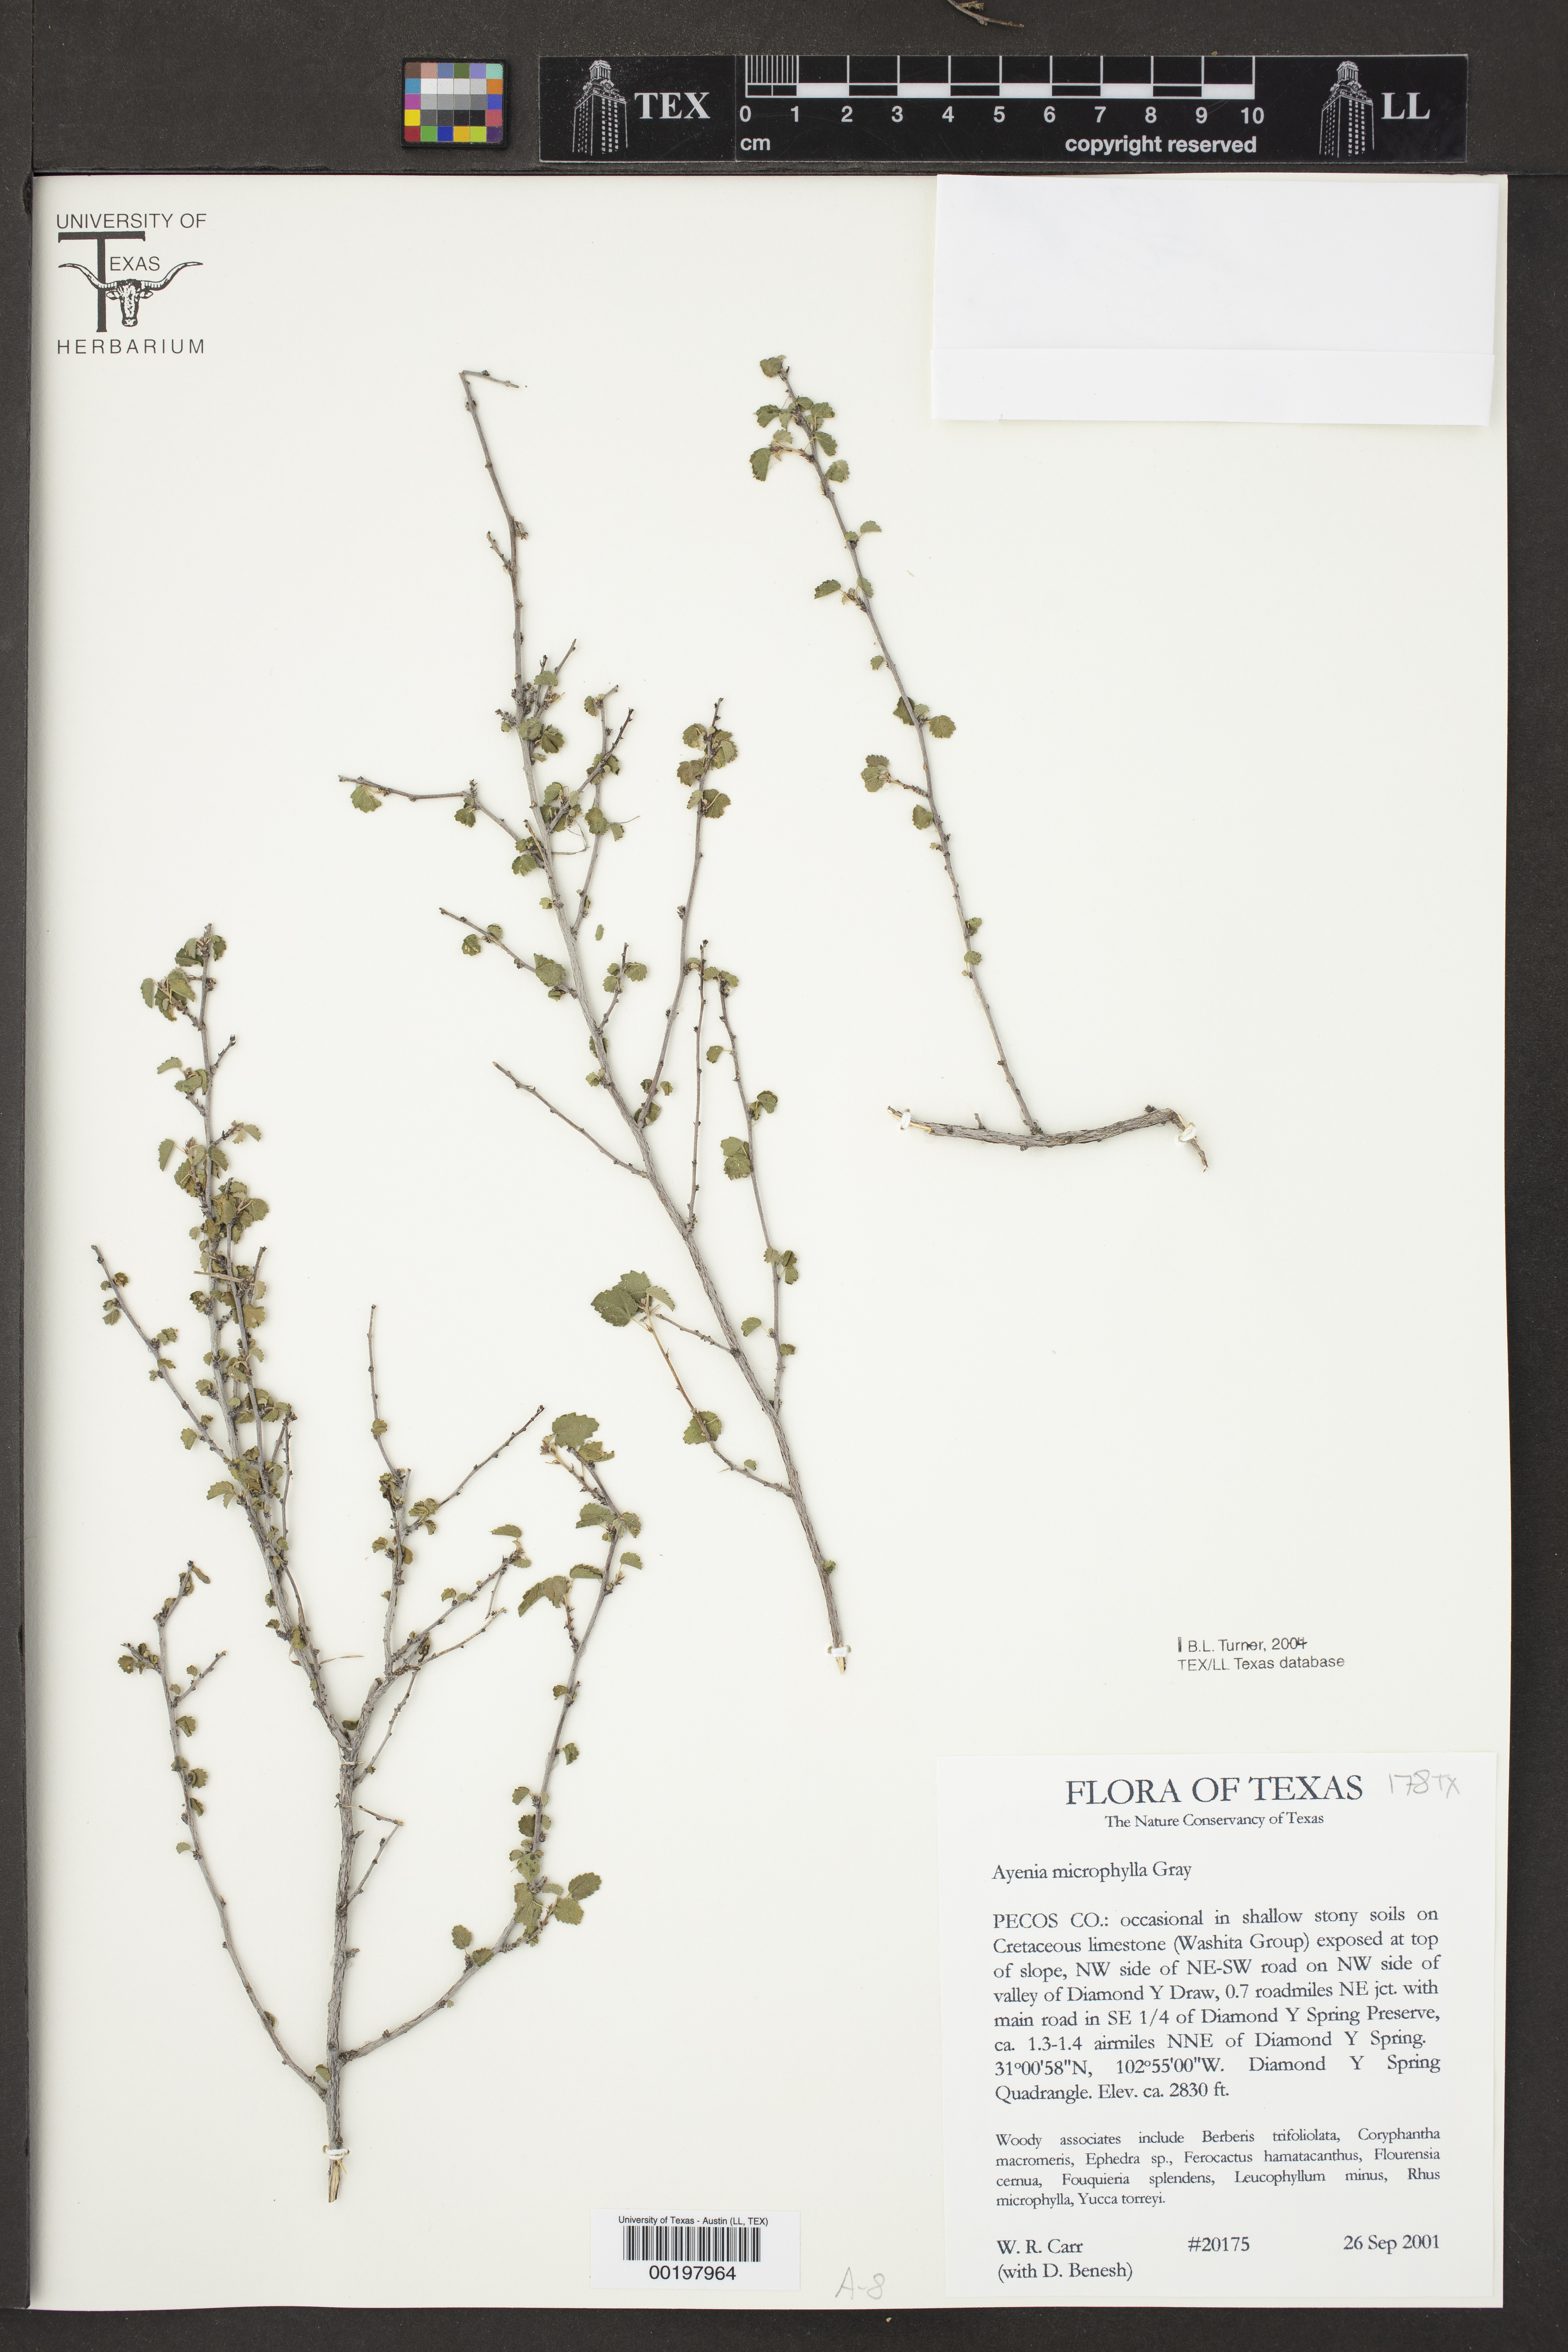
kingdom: Plantae
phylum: Tracheophyta
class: Magnoliopsida
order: Malvales
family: Malvaceae
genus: Ayenia
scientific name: Ayenia microphylla
